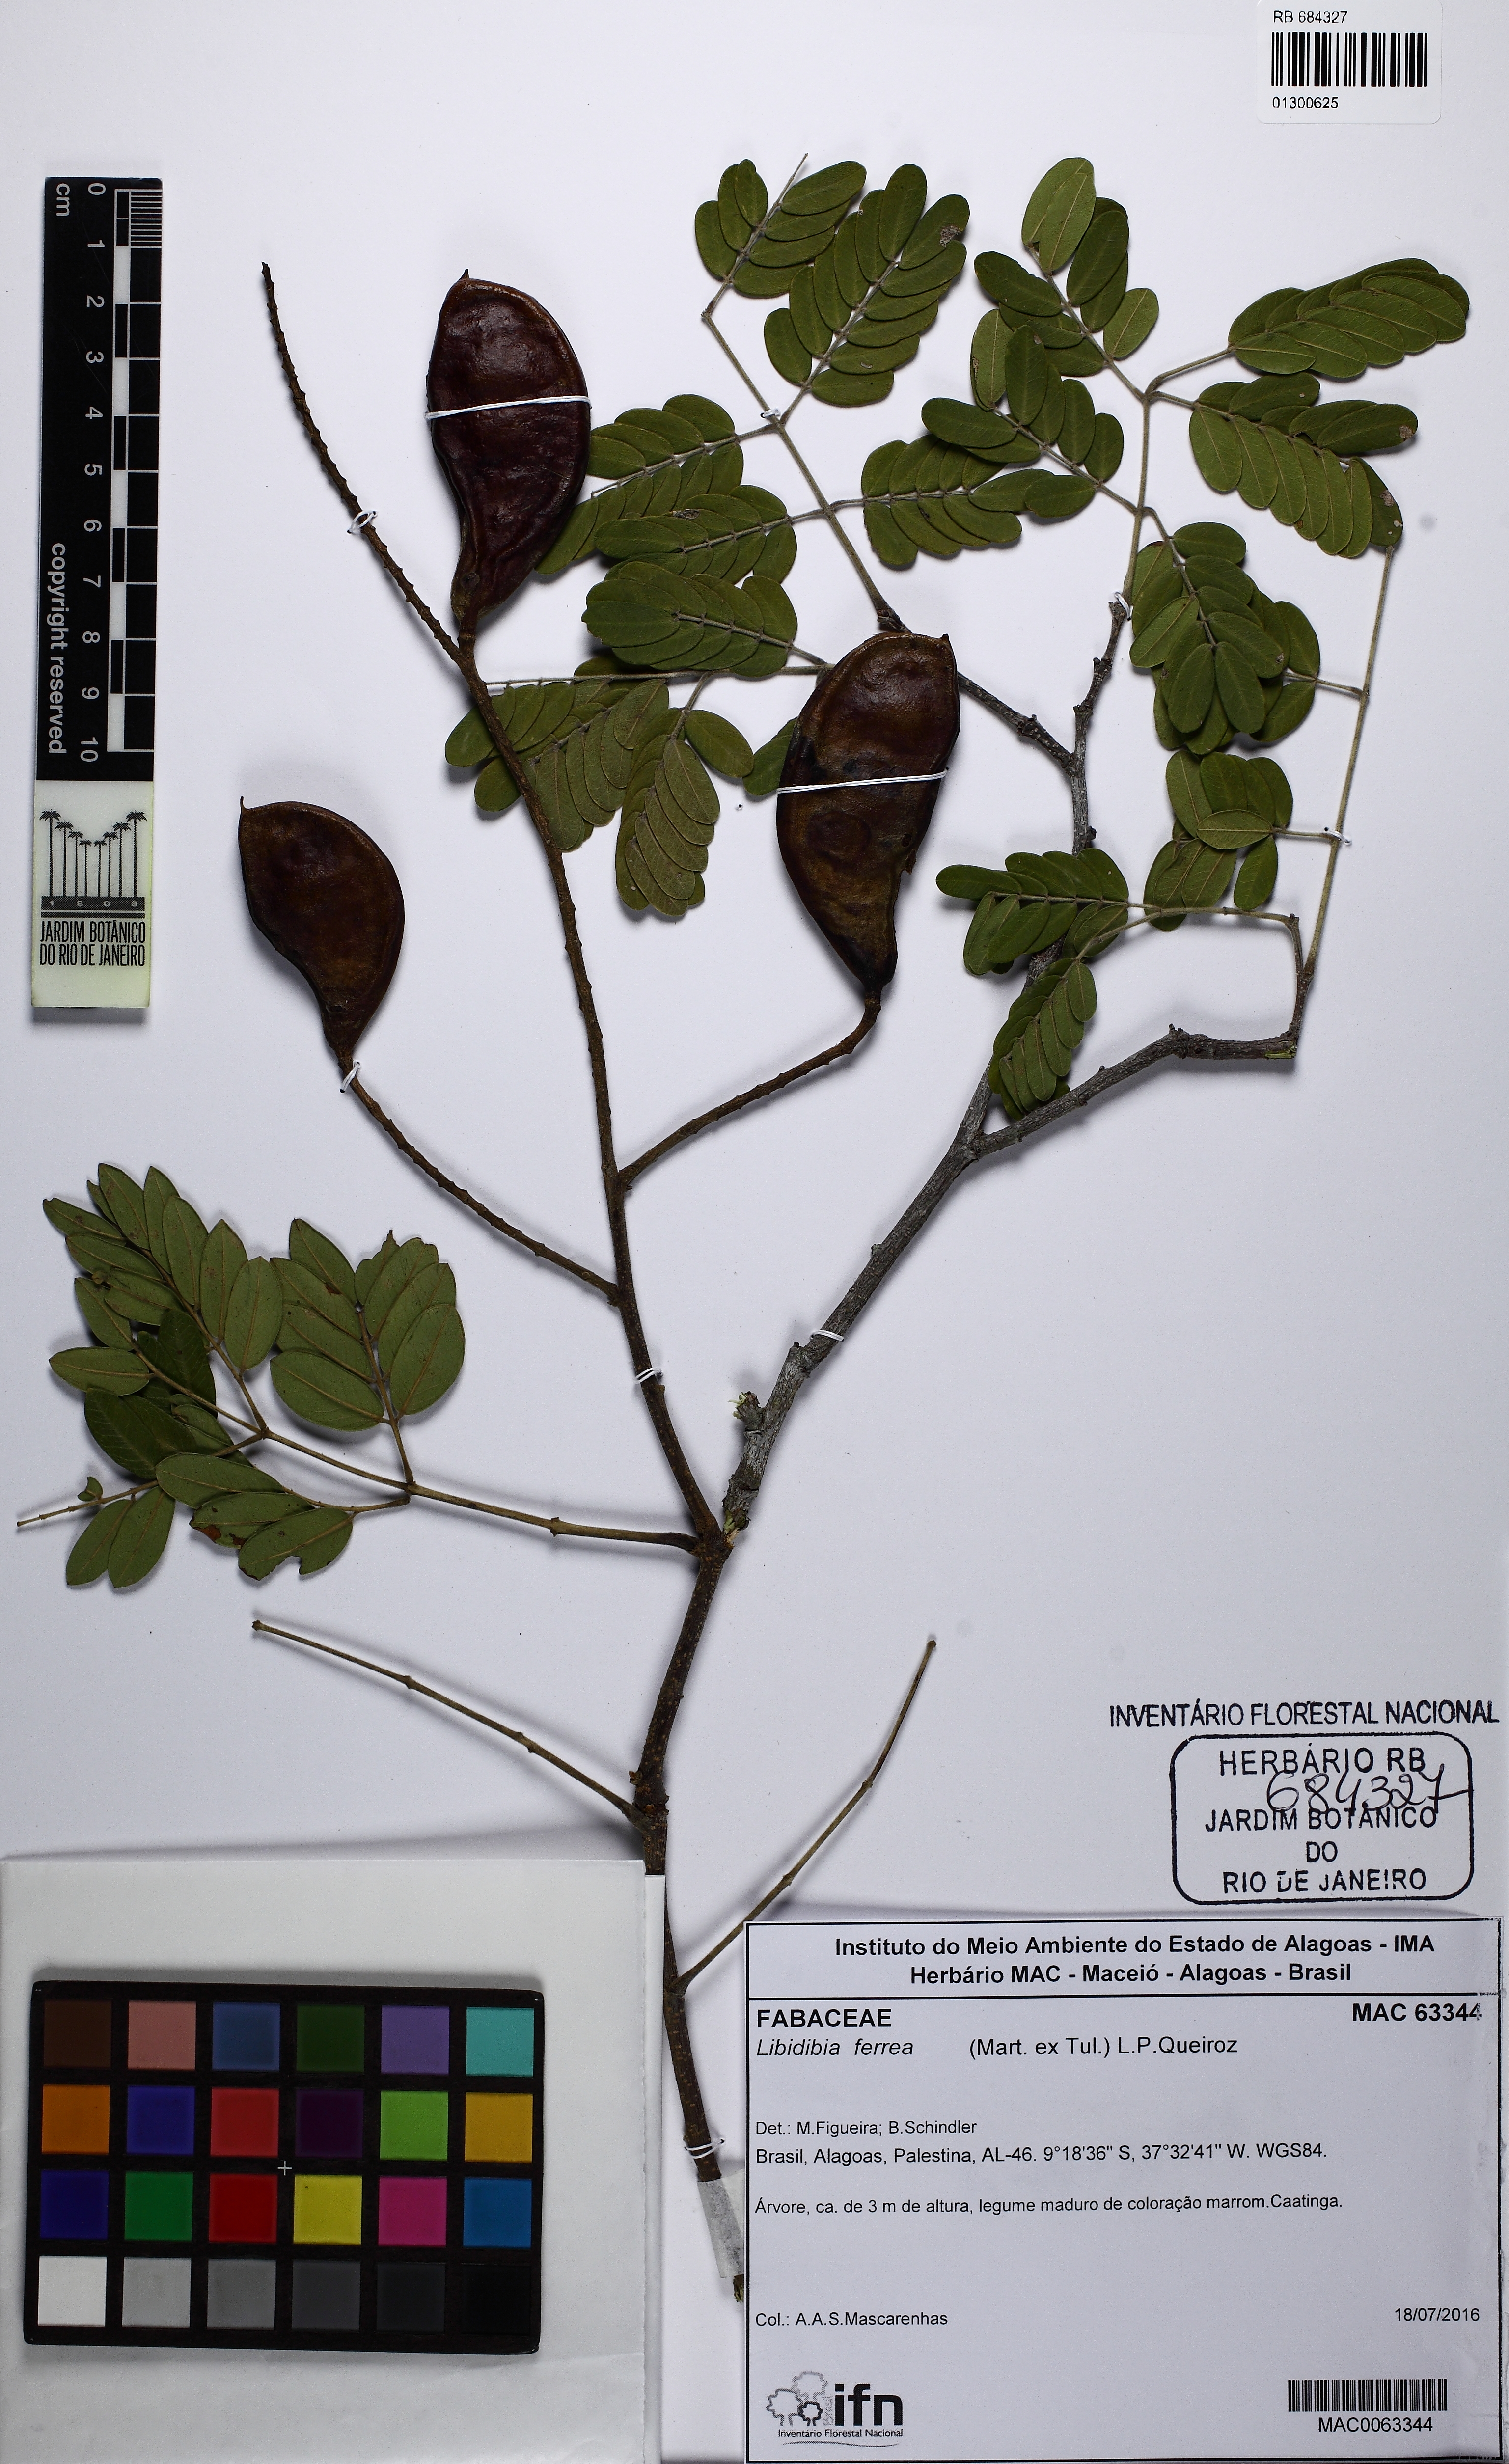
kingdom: Plantae
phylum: Tracheophyta
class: Magnoliopsida
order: Fabales
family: Fabaceae
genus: Libidibia
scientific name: Libidibia ferrea
